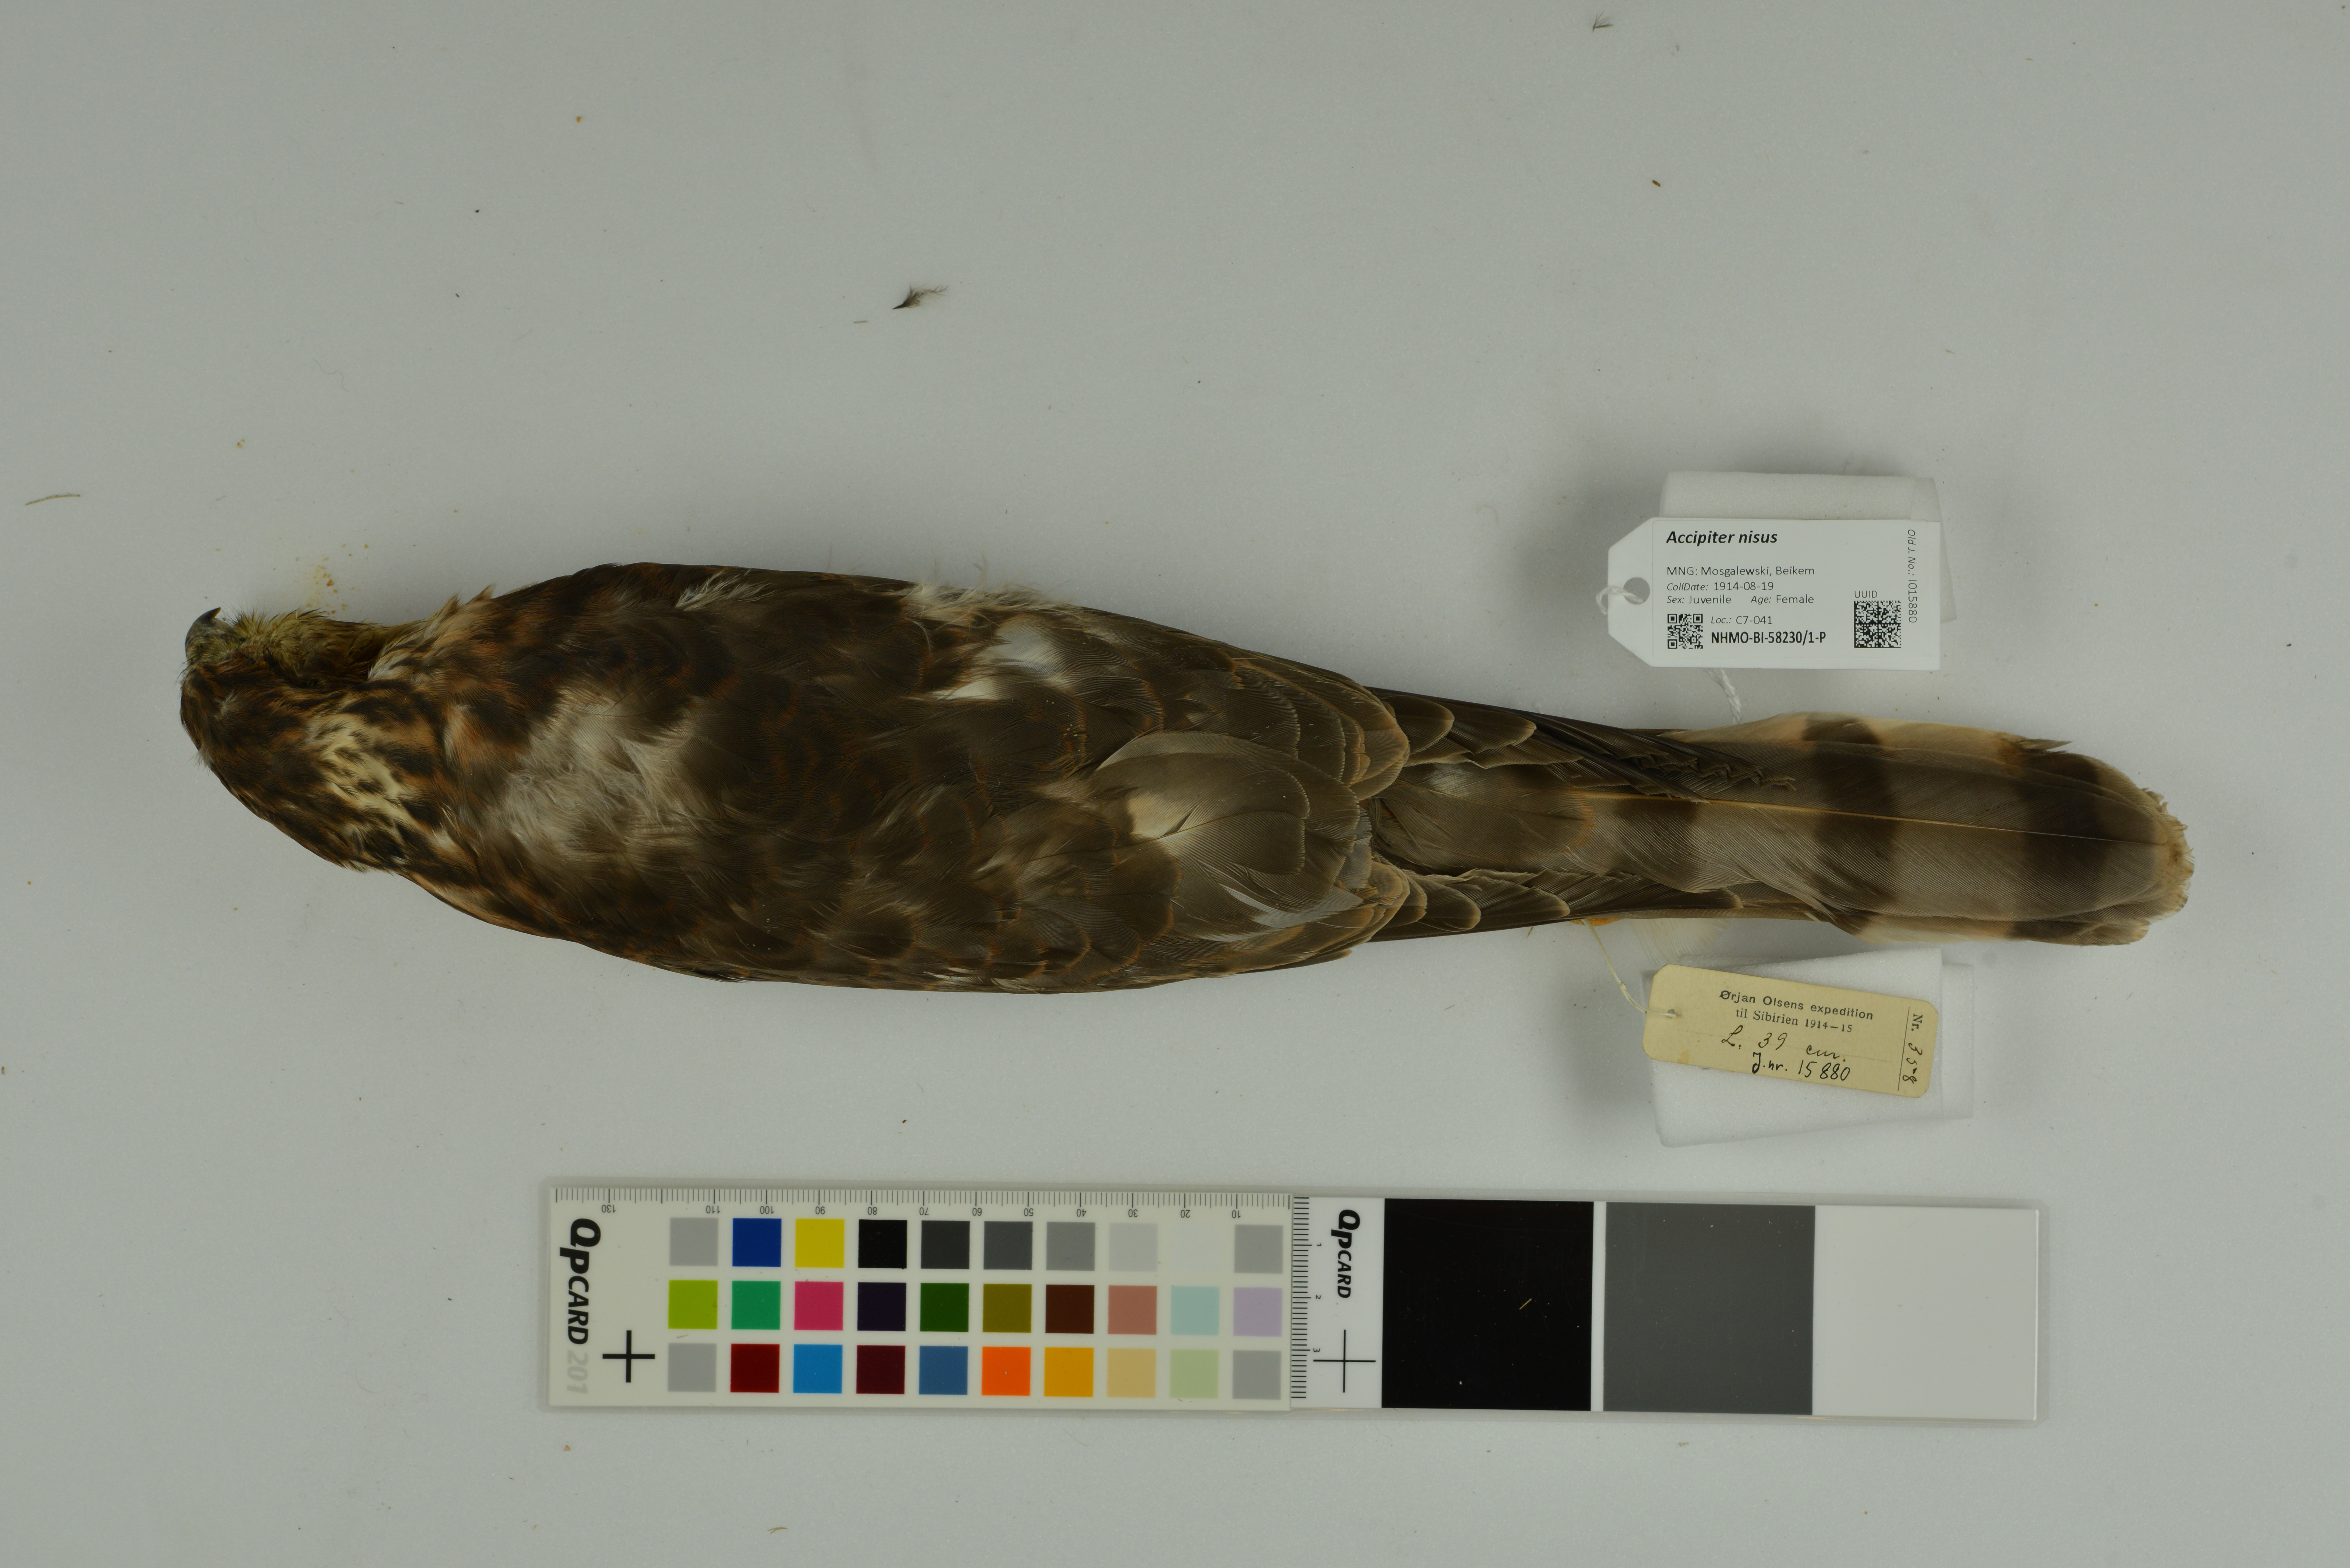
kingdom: Animalia
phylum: Chordata
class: Aves
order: Accipitriformes
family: Accipitridae
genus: Accipiter
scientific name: Accipiter nisus
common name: Eurasian sparrowhawk
